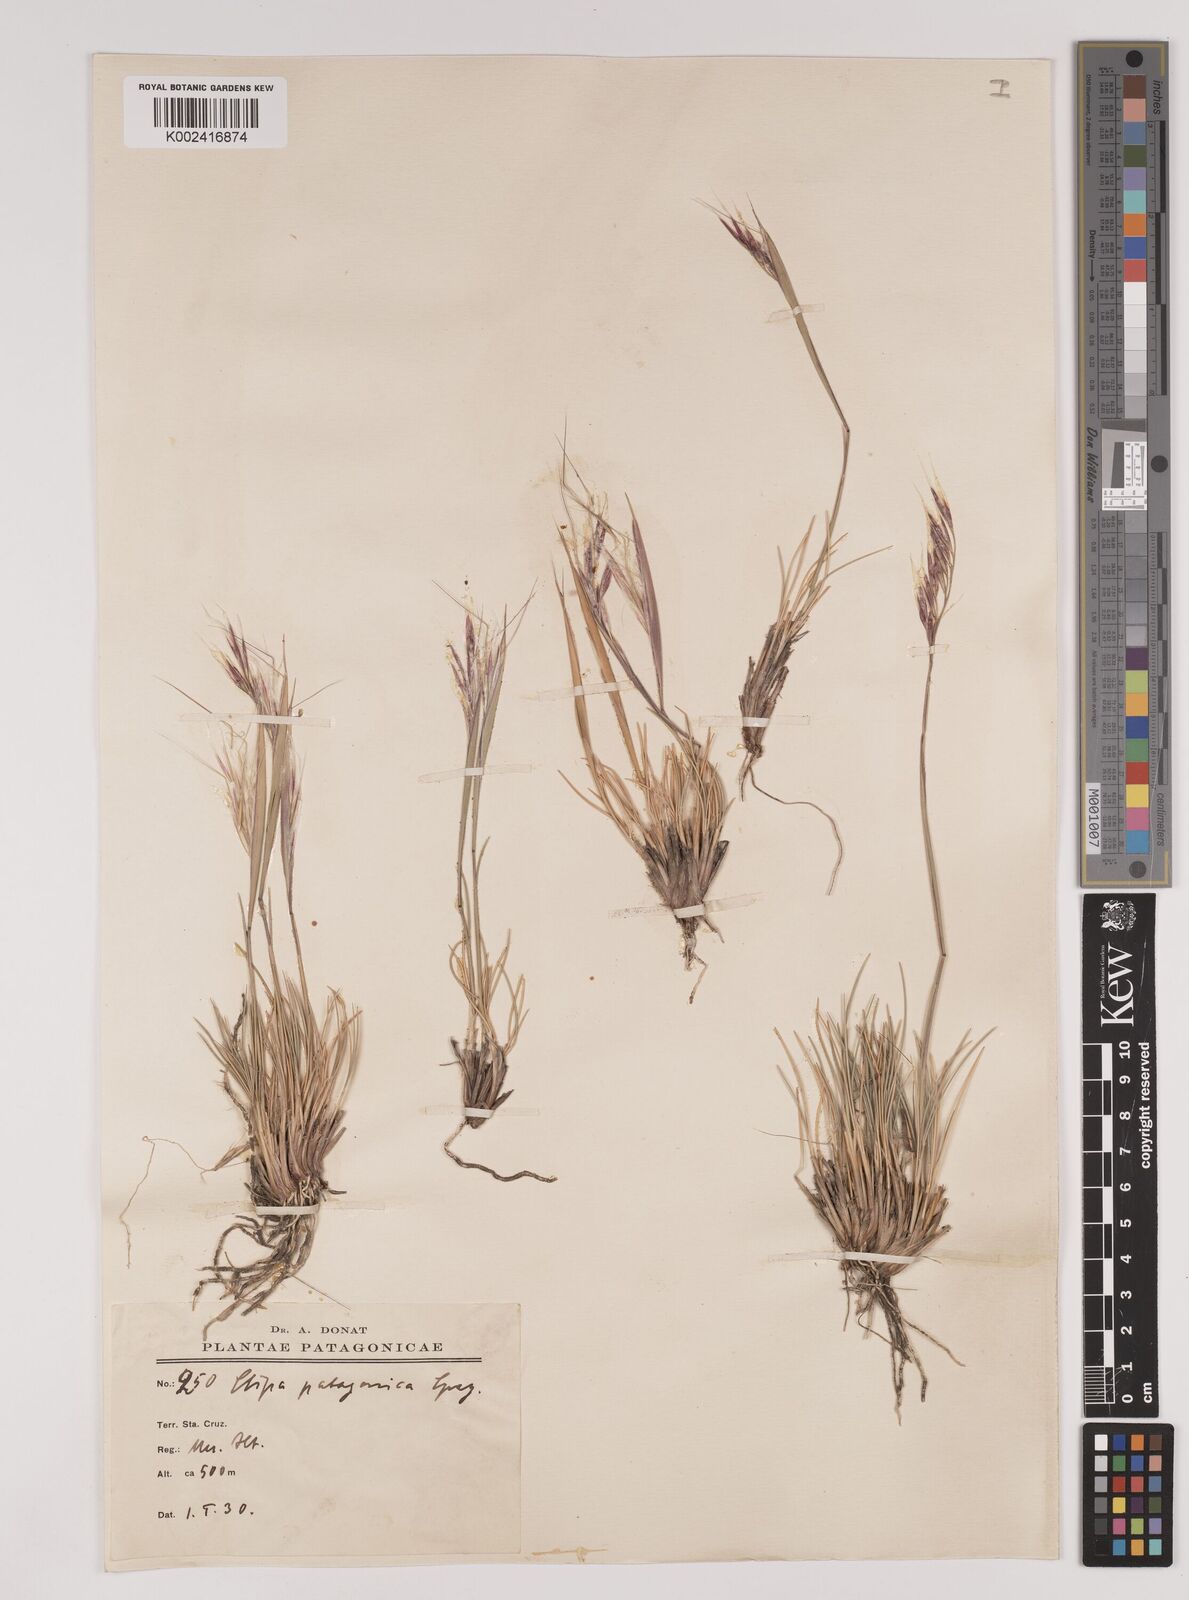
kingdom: Plantae
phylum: Tracheophyta
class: Liliopsida
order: Poales
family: Poaceae
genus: Pappostipa
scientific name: Pappostipa patagonica
